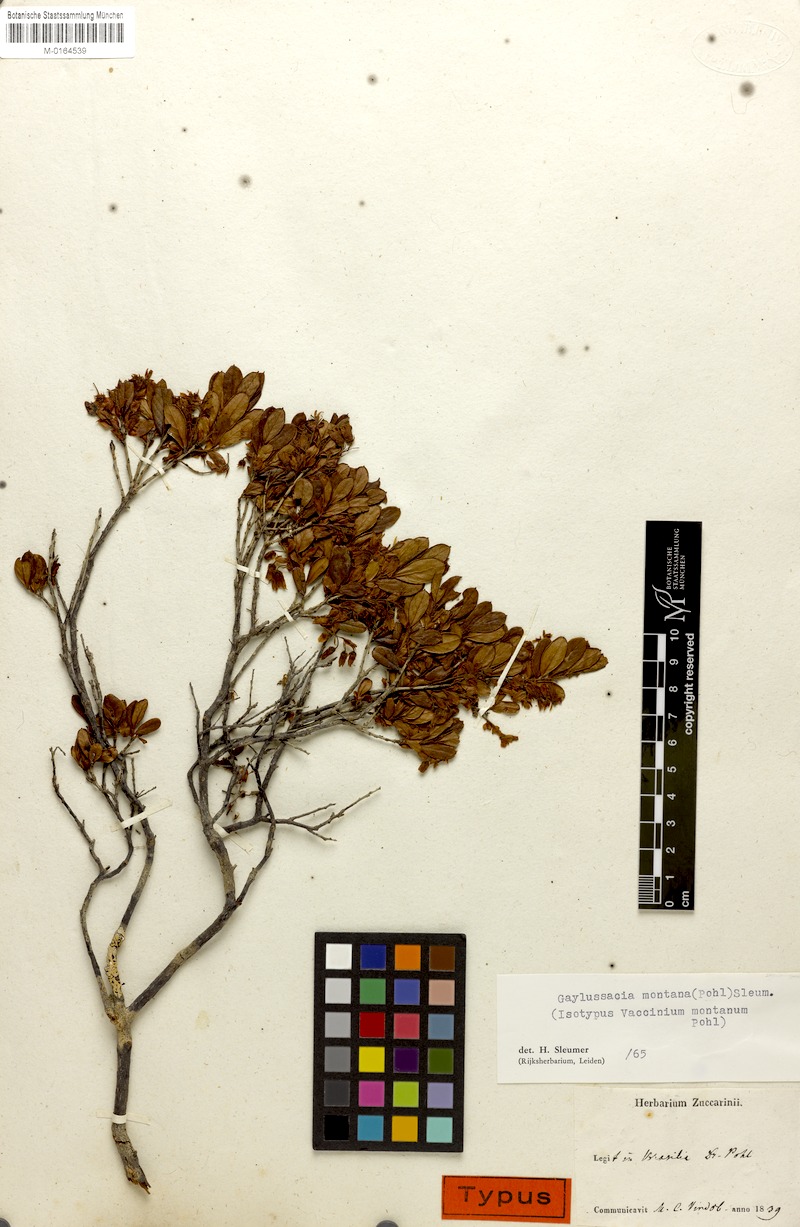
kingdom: Plantae
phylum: Tracheophyta
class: Magnoliopsida
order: Ericales
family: Ericaceae
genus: Gaylussacia
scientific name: Gaylussacia montana
